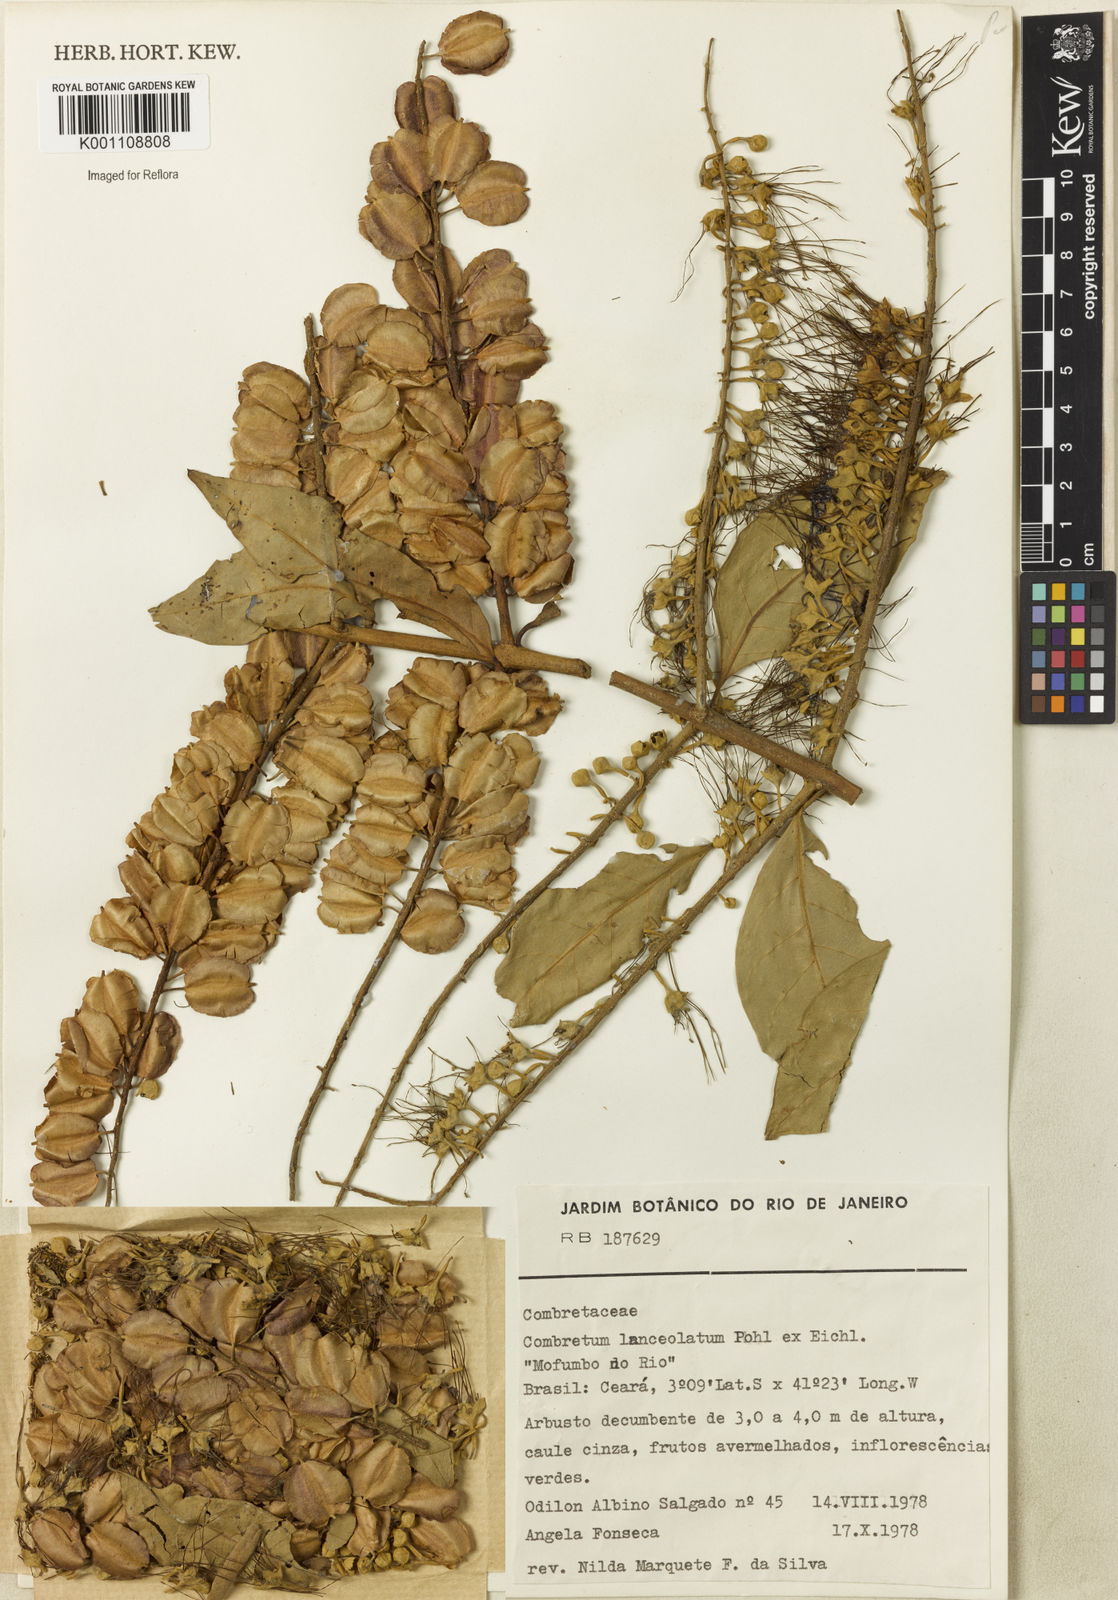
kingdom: Plantae
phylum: Tracheophyta
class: Magnoliopsida
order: Myrtales
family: Combretaceae
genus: Combretum
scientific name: Combretum lanceolatum
